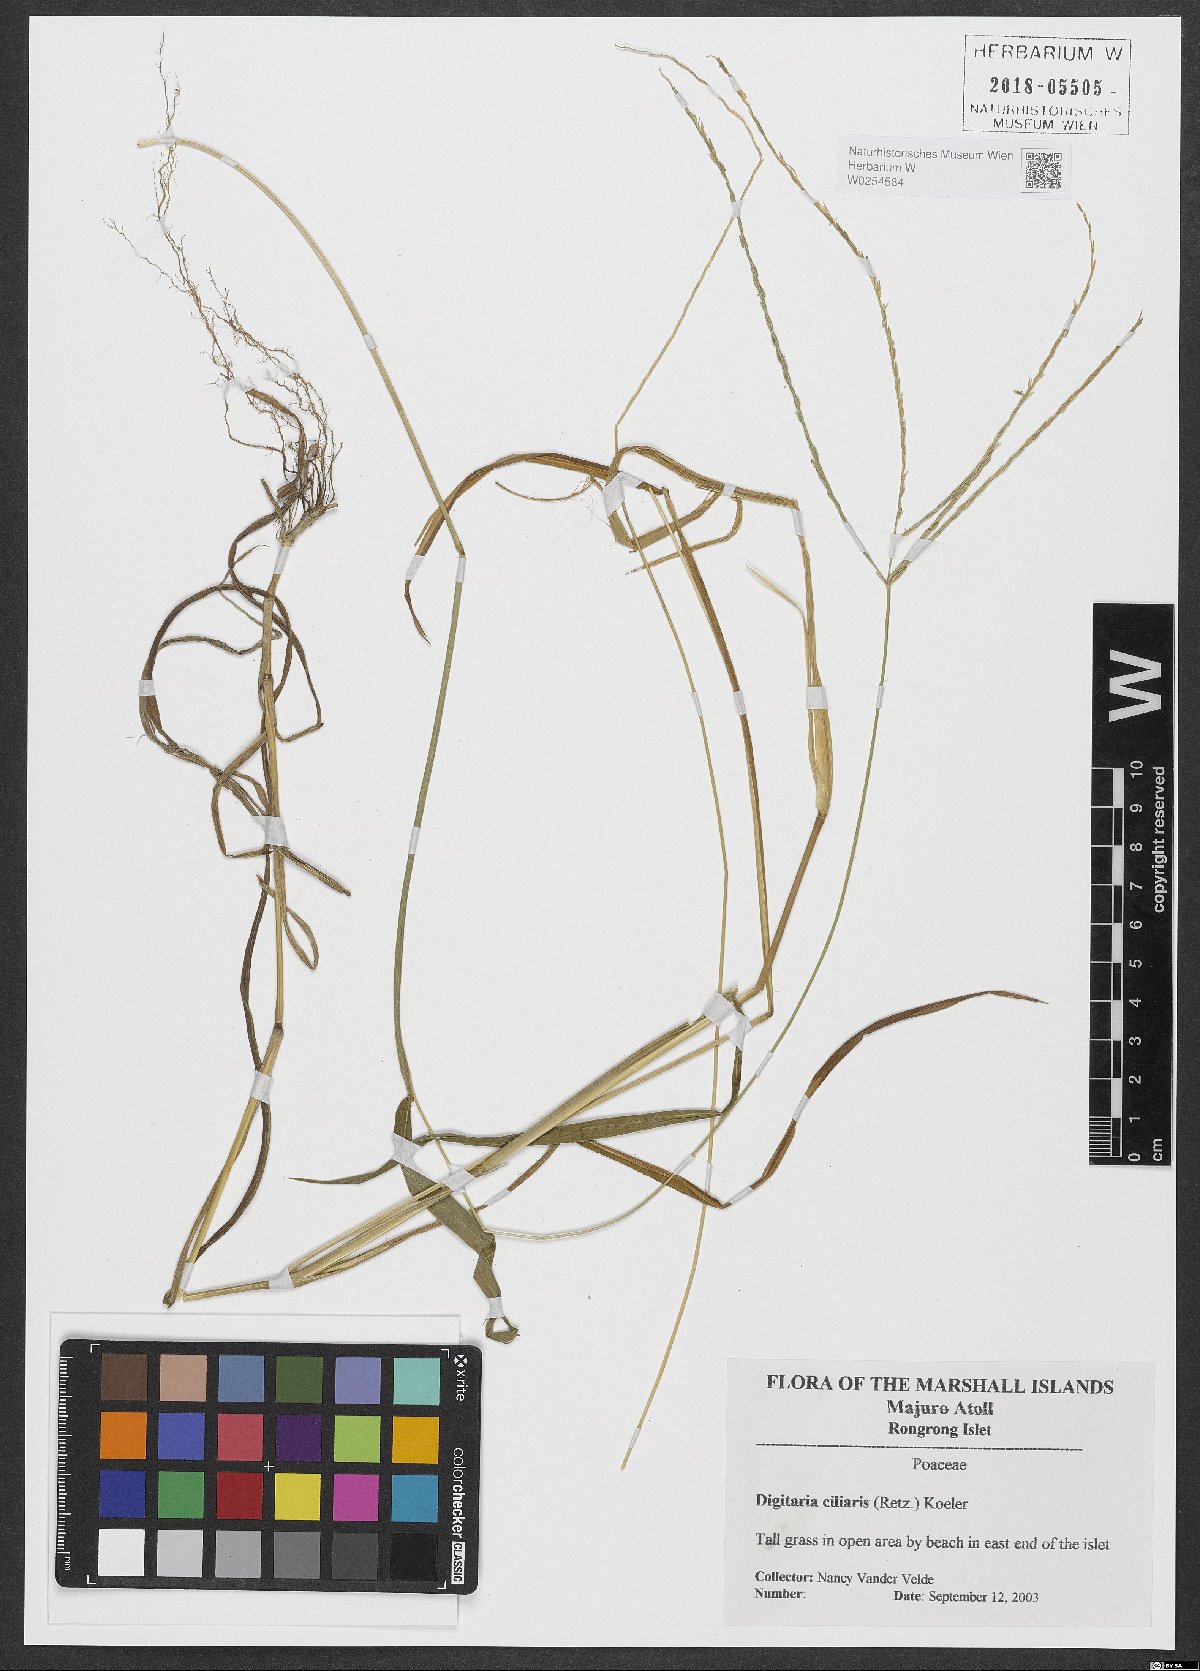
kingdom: Plantae
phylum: Tracheophyta
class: Liliopsida
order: Poales
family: Poaceae
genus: Digitaria
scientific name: Digitaria ciliaris
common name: Tropical finger-grass
